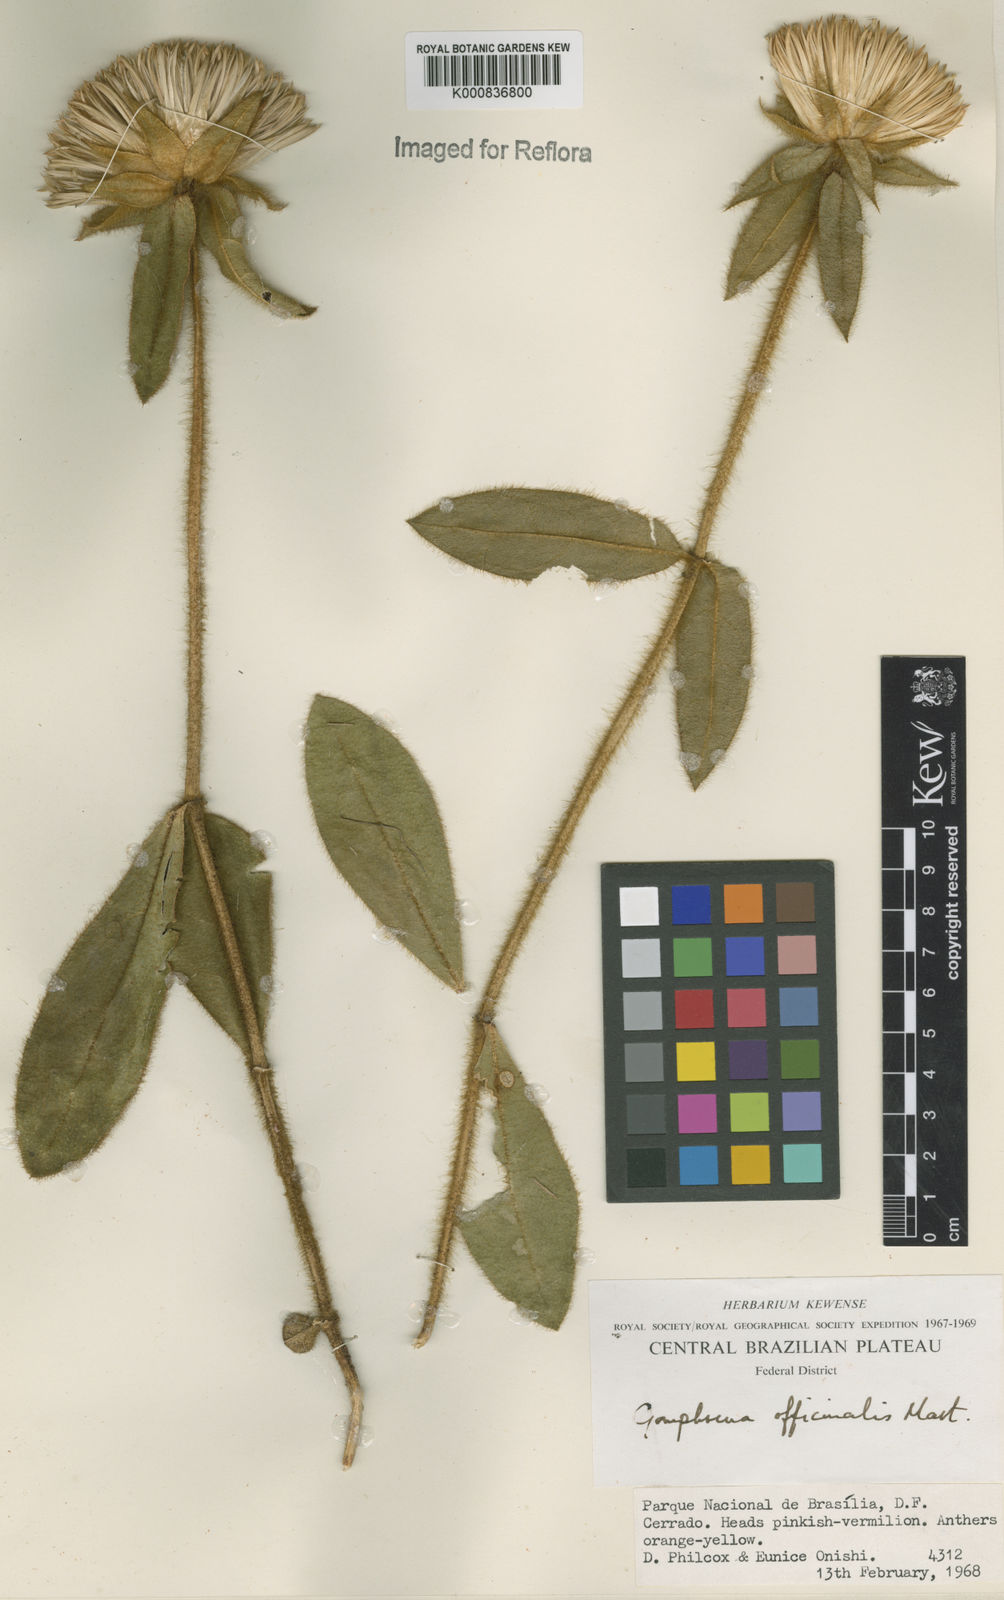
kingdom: Plantae
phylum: Tracheophyta
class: Magnoliopsida
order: Caryophyllales
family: Amaranthaceae
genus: Gomphrena
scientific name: Gomphrena arborescens
